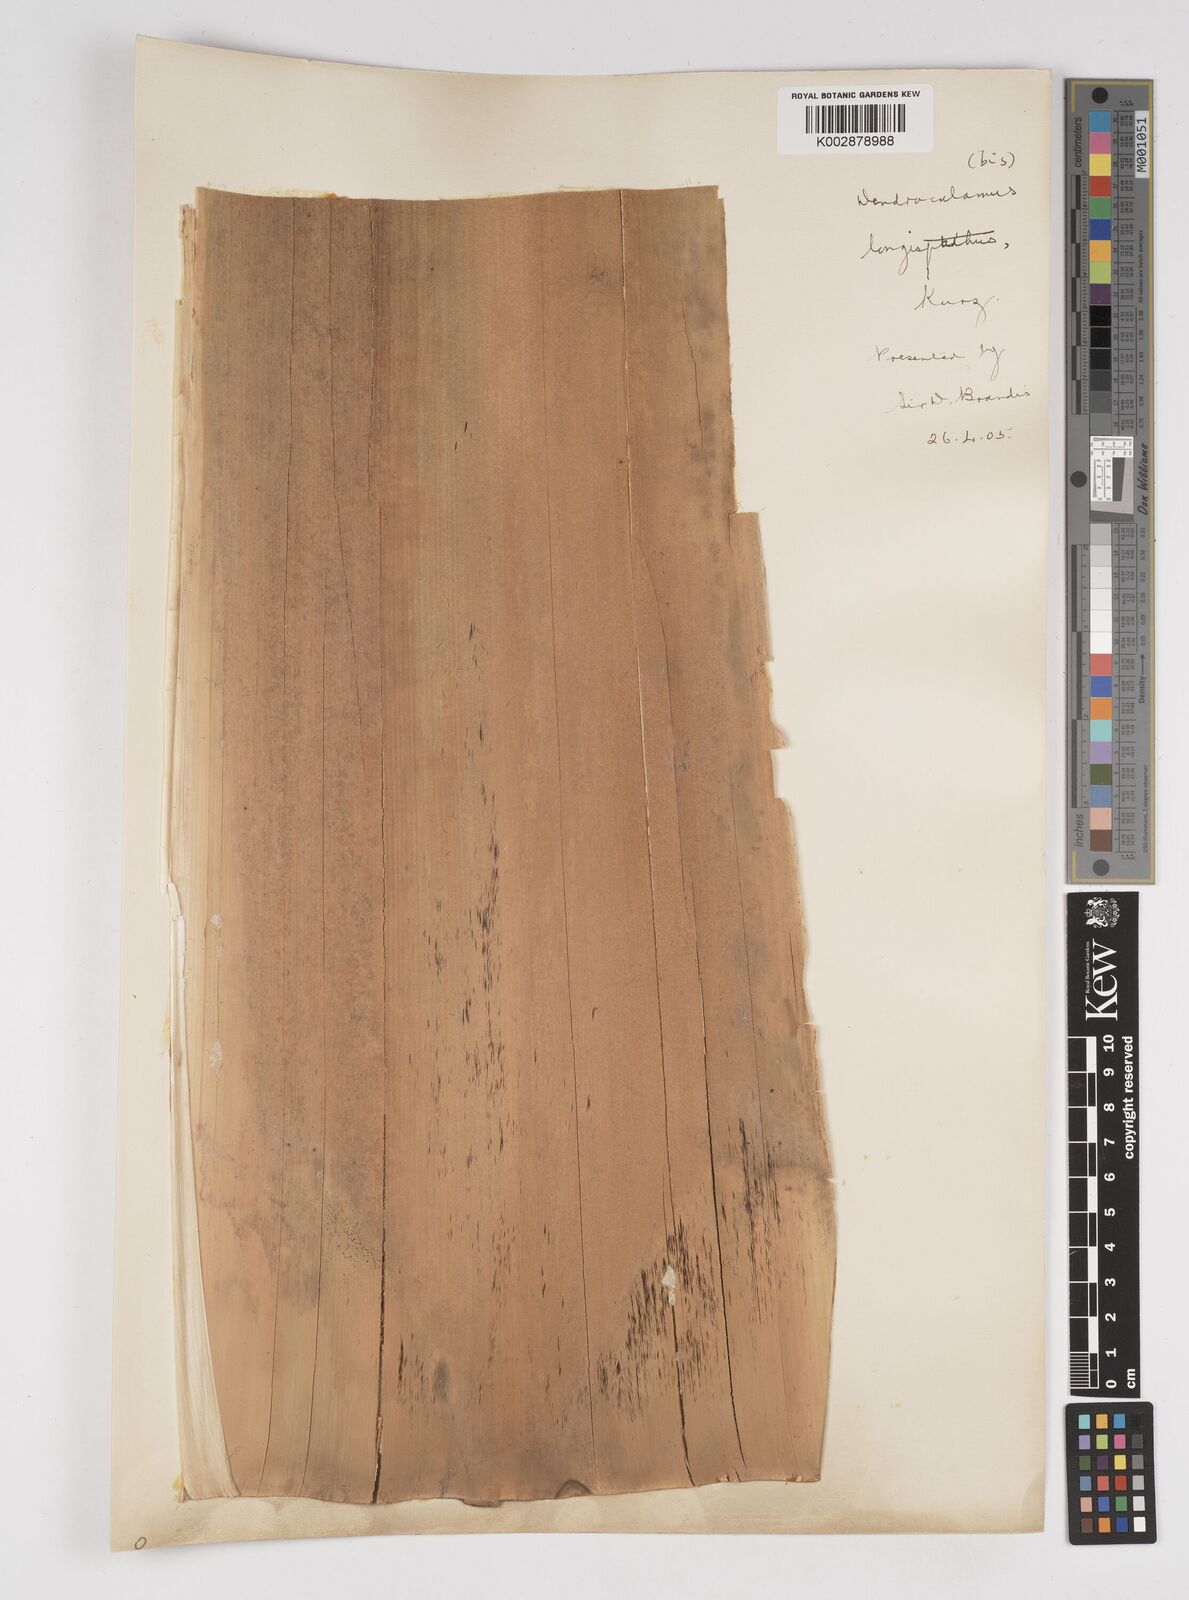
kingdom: Plantae
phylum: Tracheophyta
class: Liliopsida
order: Poales
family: Poaceae
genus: Dendrocalamus
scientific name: Dendrocalamus longispathus
